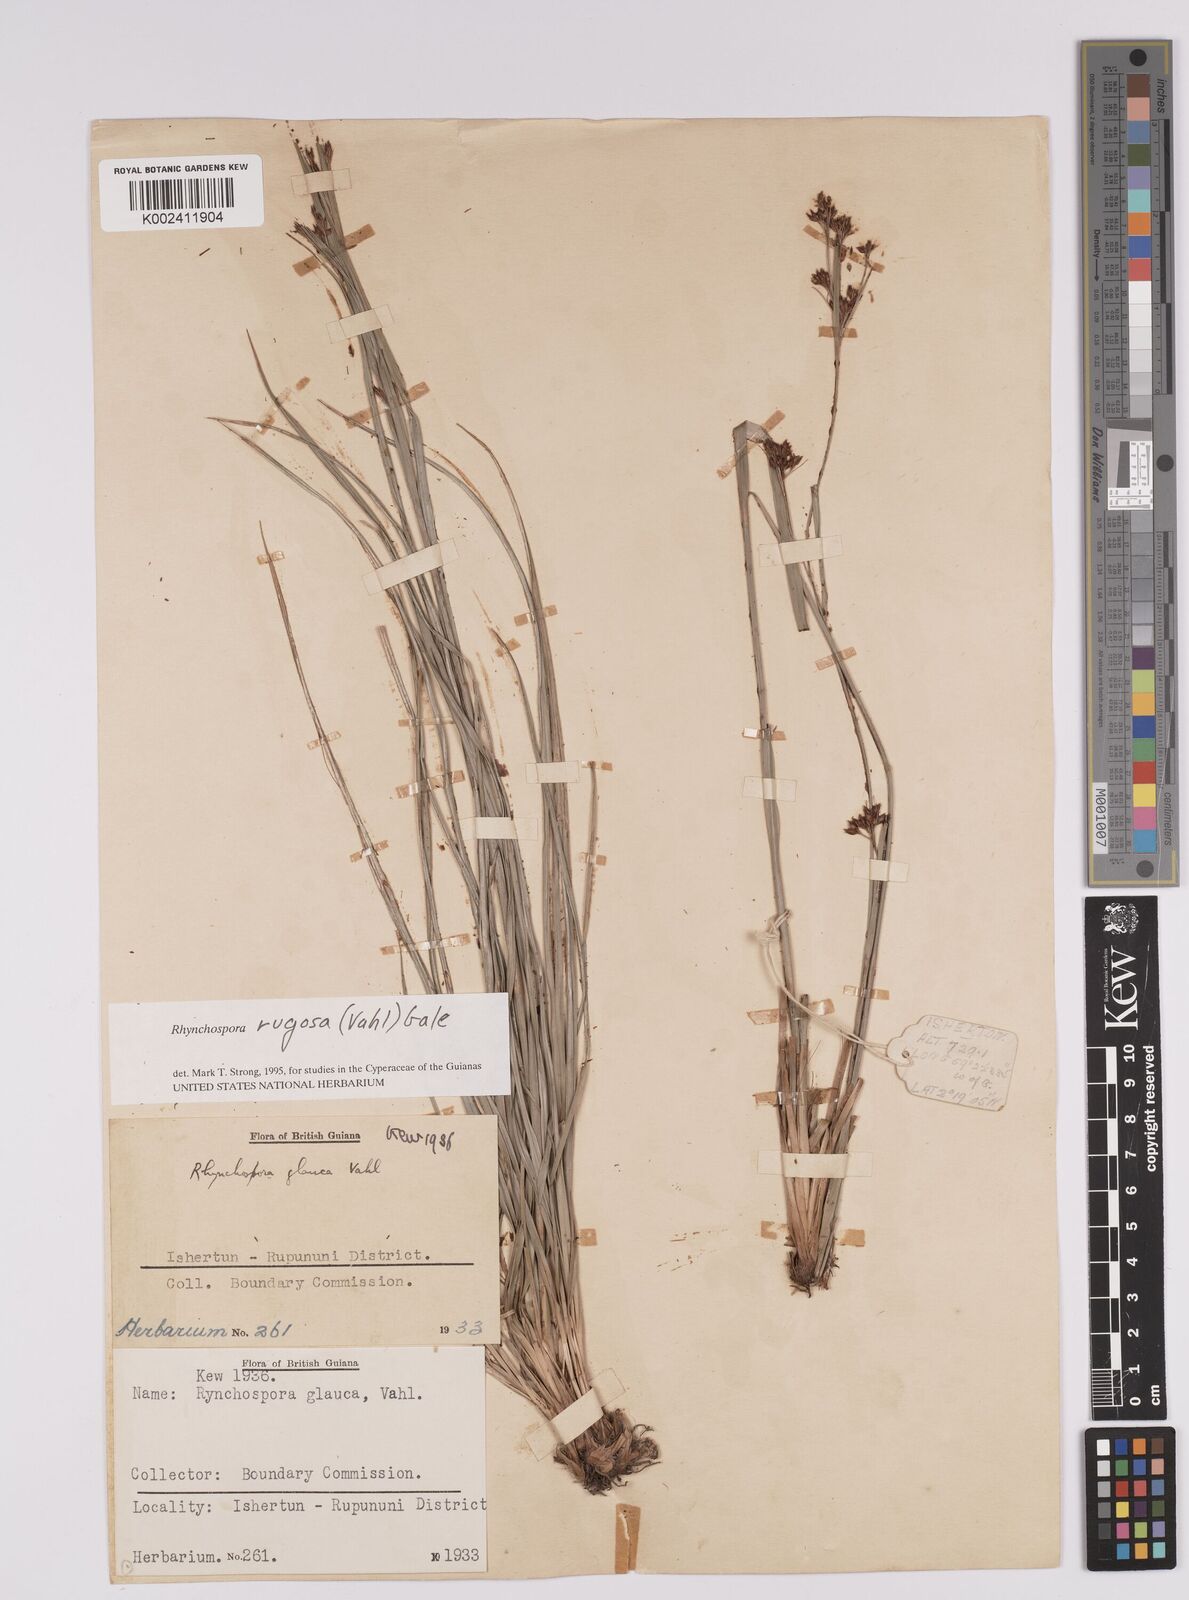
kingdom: Plantae
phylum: Tracheophyta
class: Liliopsida
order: Poales
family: Cyperaceae
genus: Rhynchospora
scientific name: Rhynchospora rugosa
